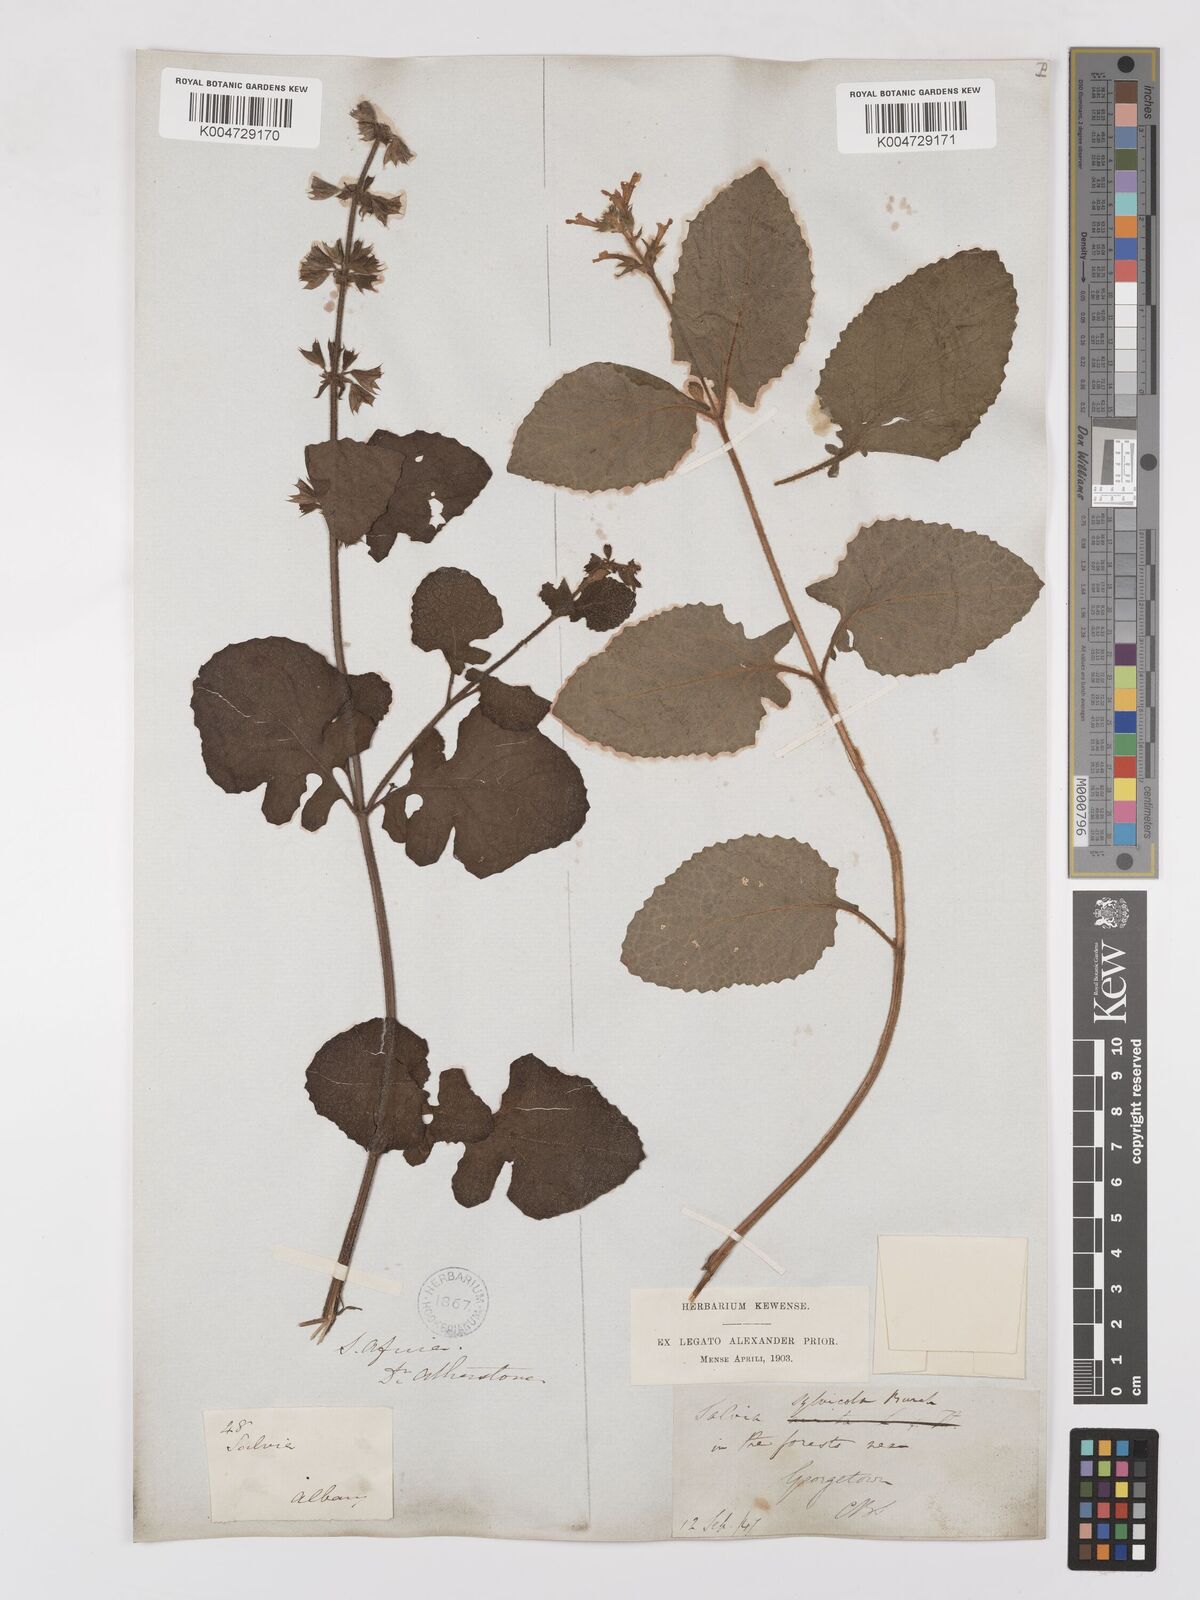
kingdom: Plantae
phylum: Tracheophyta
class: Magnoliopsida
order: Lamiales
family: Lamiaceae
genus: Salvia
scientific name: Salvia aurita
